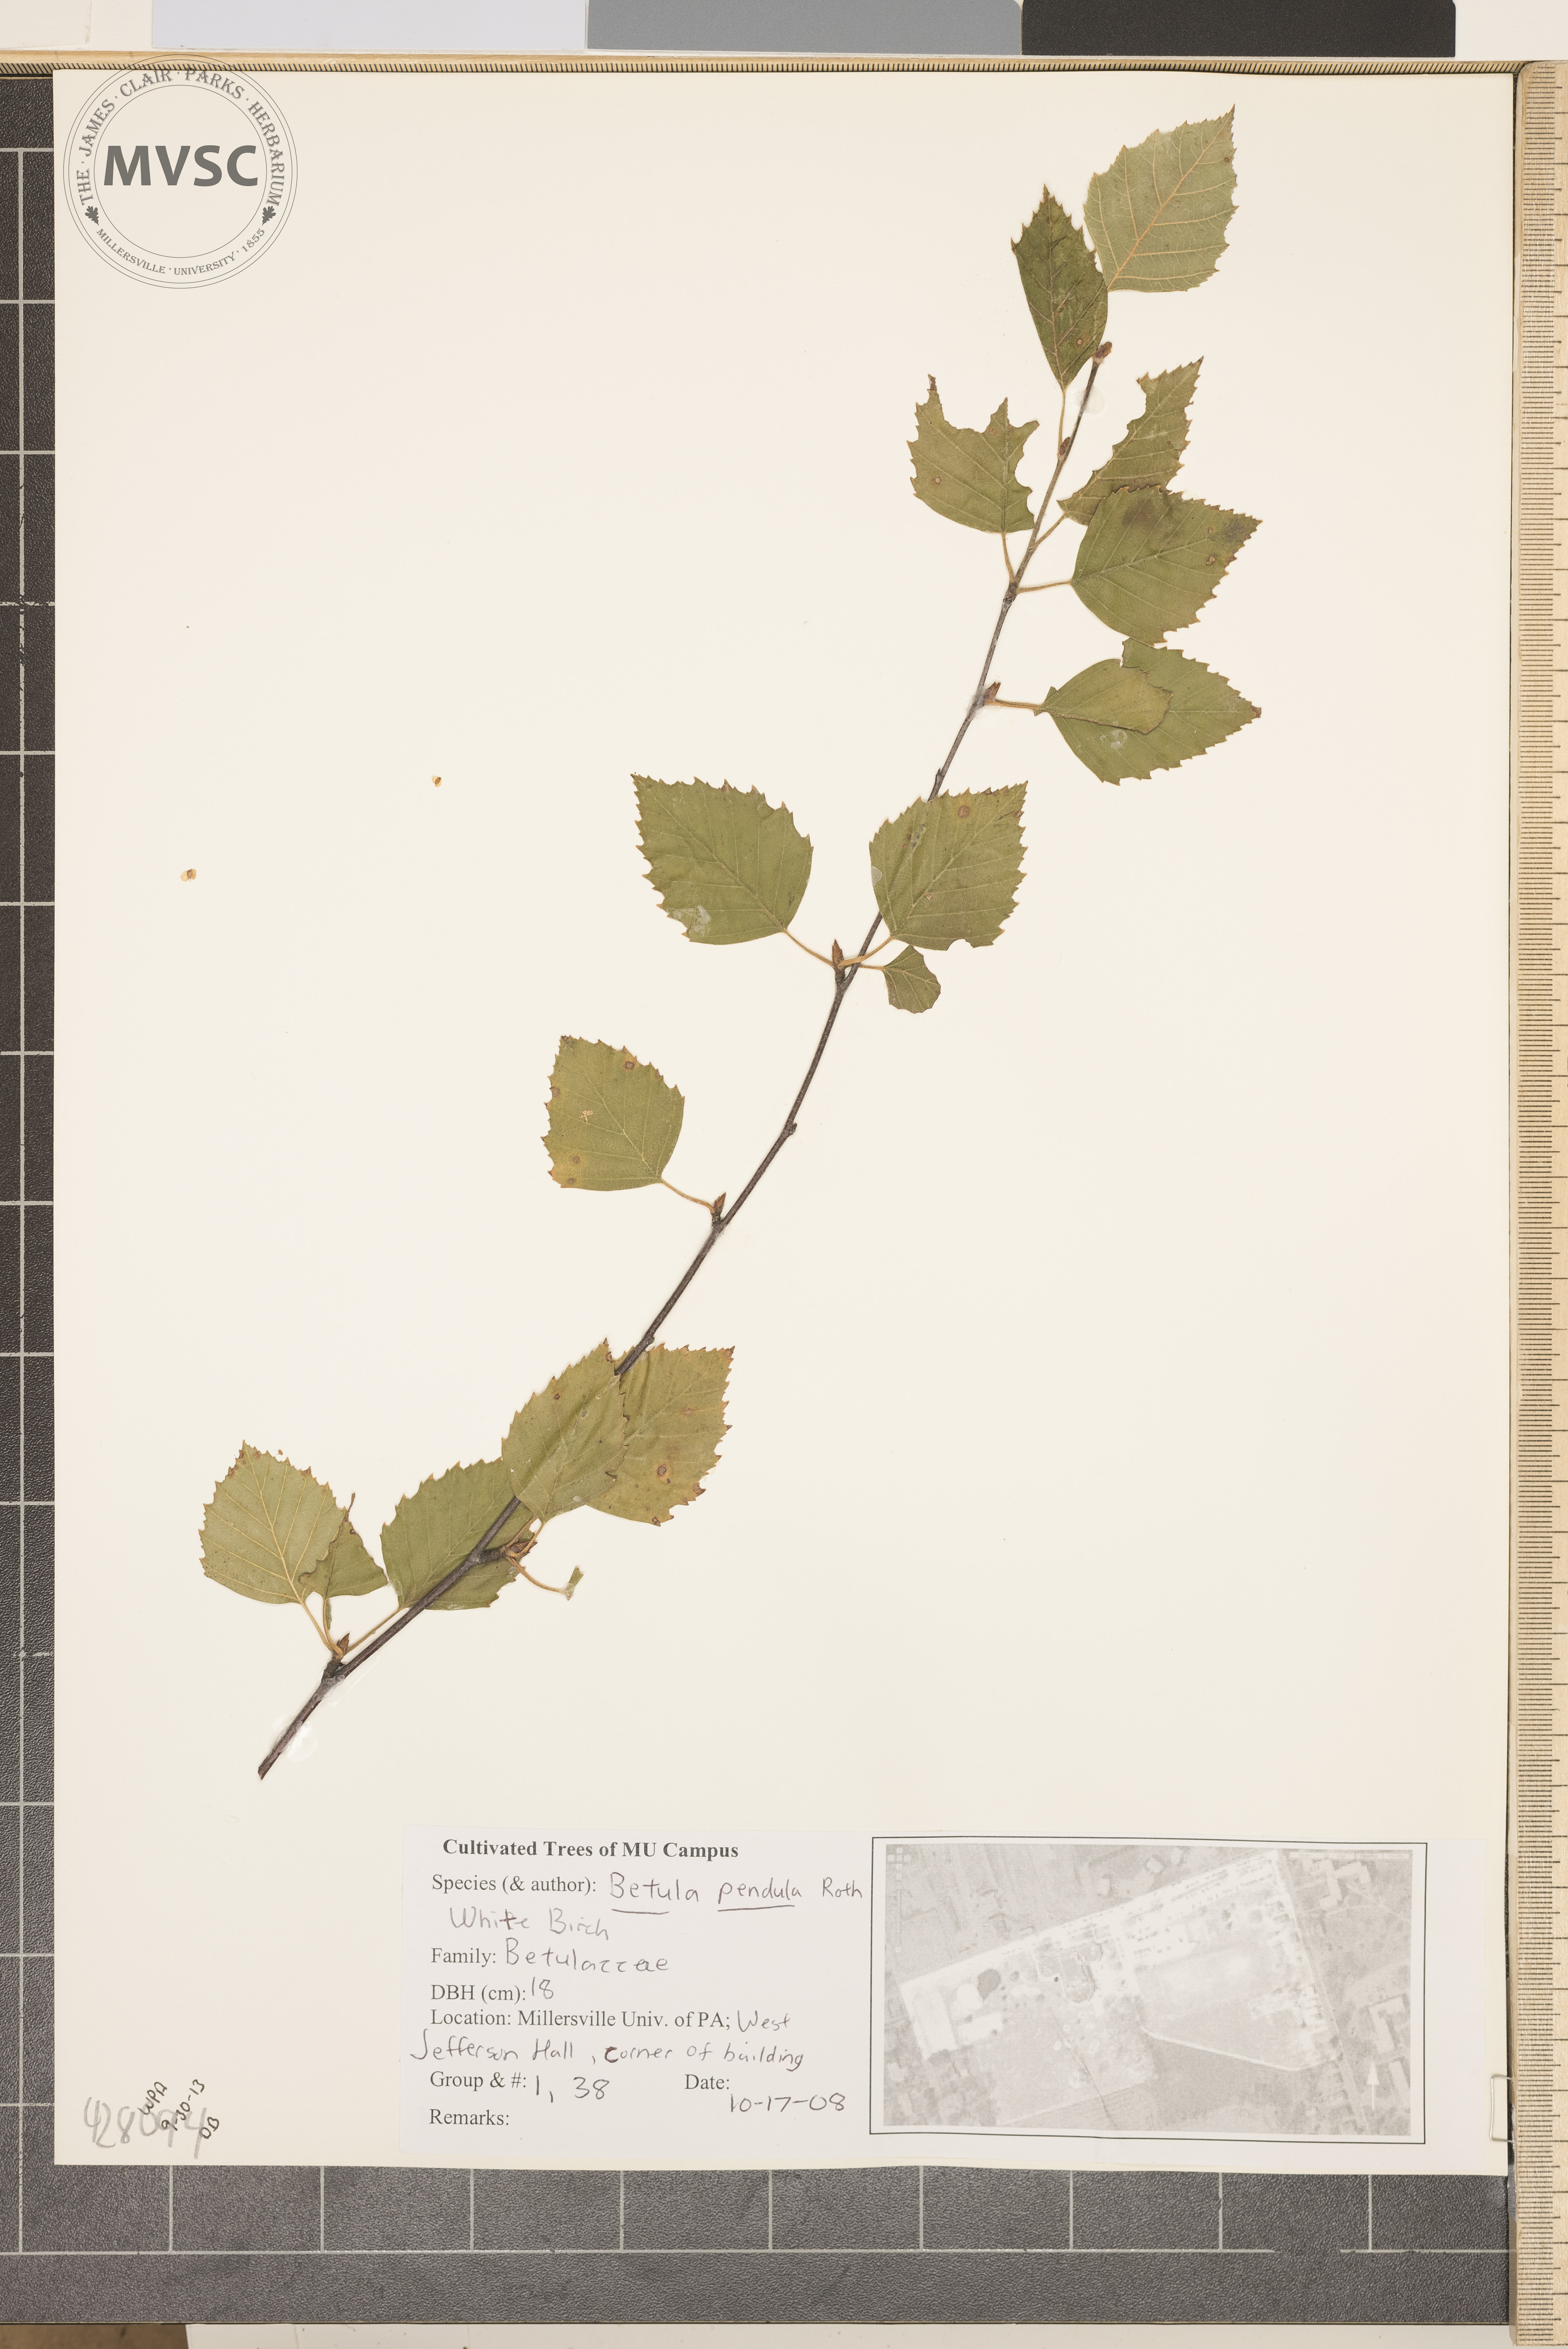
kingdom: Plantae
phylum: Tracheophyta
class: Magnoliopsida
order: Fagales
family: Betulaceae
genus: Betula
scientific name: Betula pendula
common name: Silver Birch
